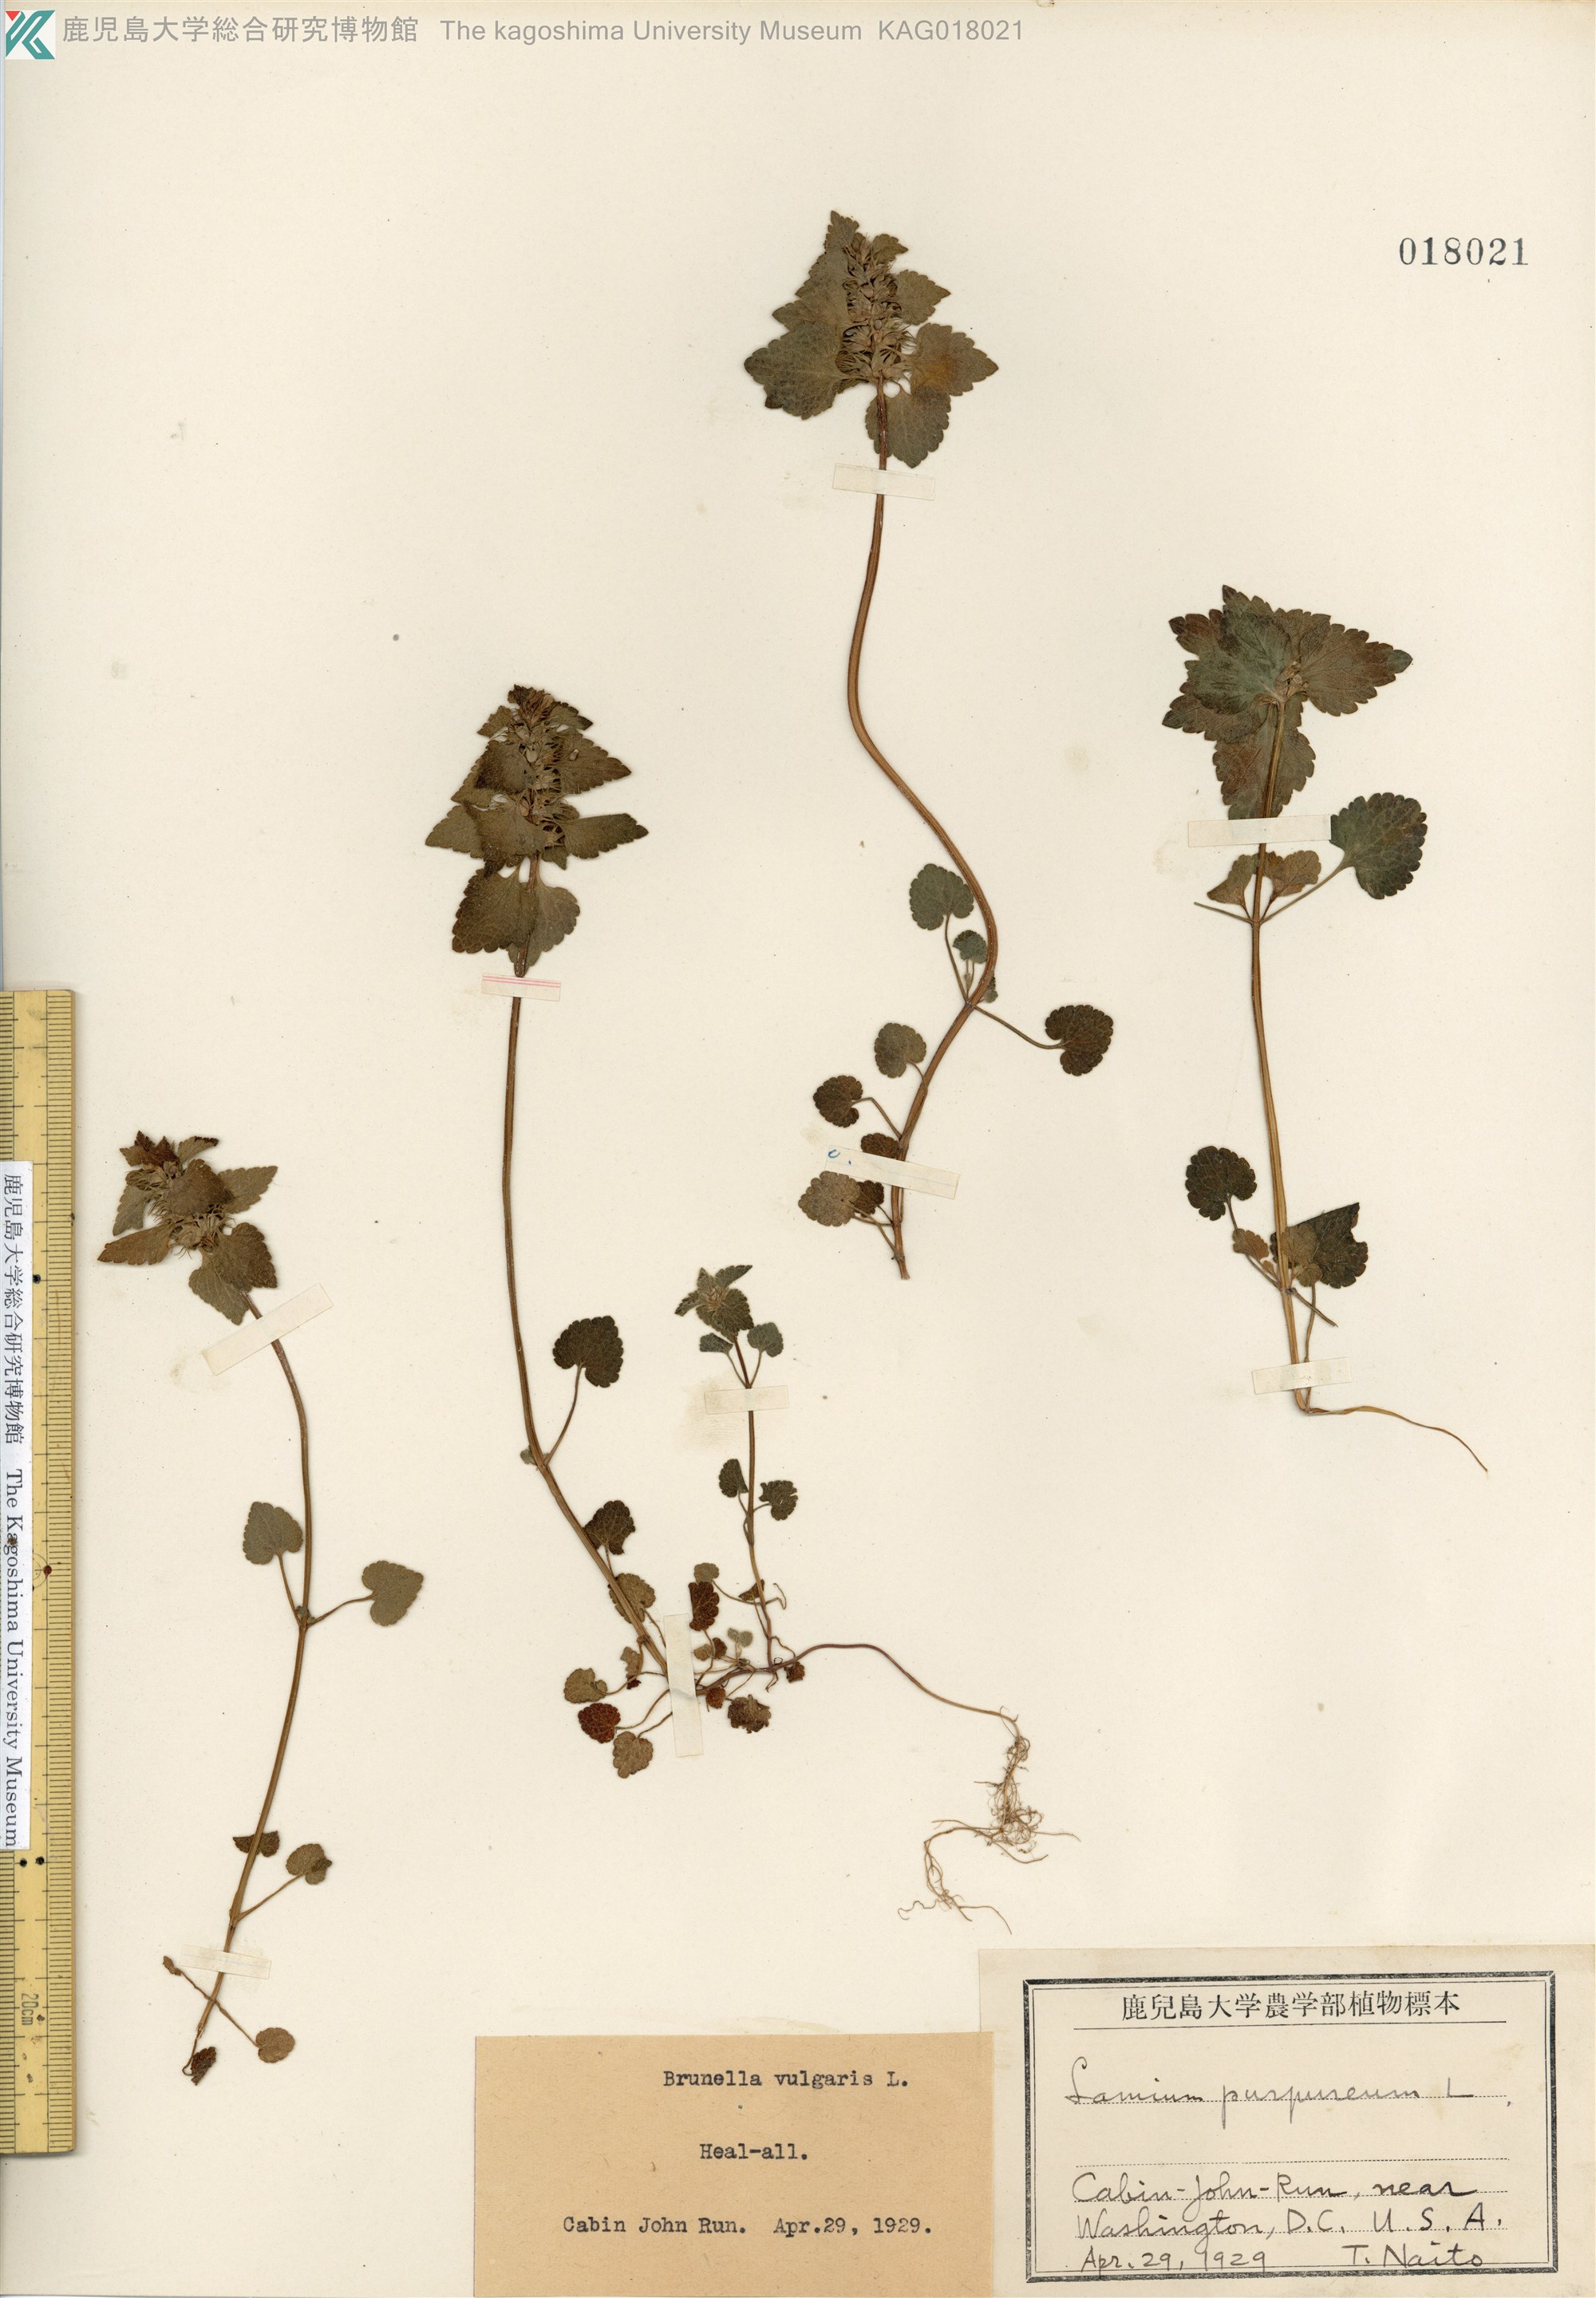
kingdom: Plantae
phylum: Tracheophyta
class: Magnoliopsida
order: Lamiales
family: Lamiaceae
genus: Lamium
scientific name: Lamium purpureum
